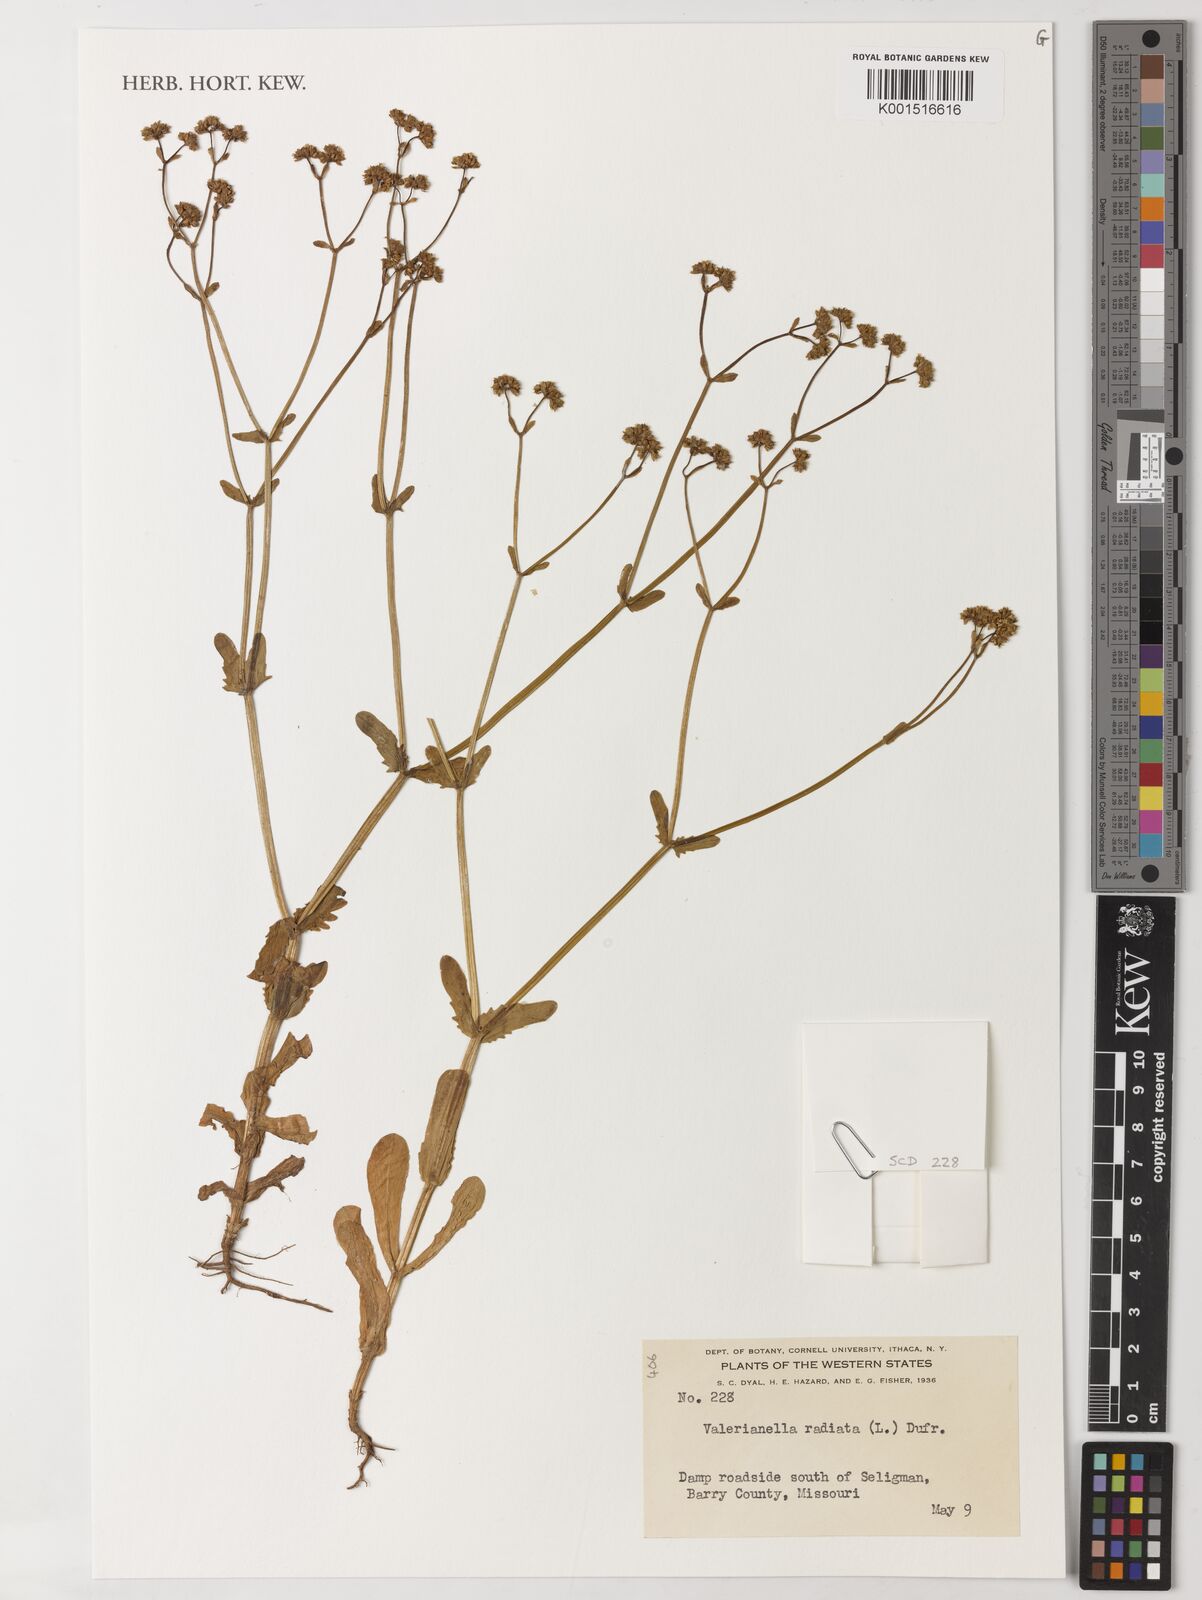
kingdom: Plantae
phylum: Tracheophyta
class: Magnoliopsida
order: Dipsacales
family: Caprifoliaceae
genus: Valerianella
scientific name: Valerianella radiata
